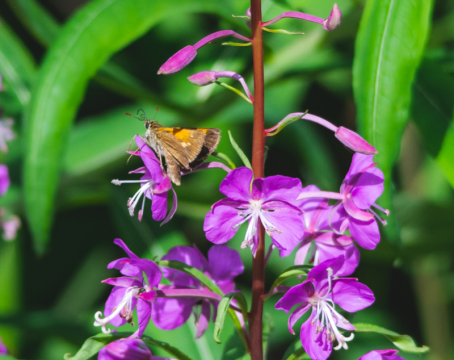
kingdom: Animalia
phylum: Arthropoda
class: Insecta
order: Lepidoptera
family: Hesperiidae
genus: Polites
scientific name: Polites themistocles
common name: Tawny-edged Skipper
